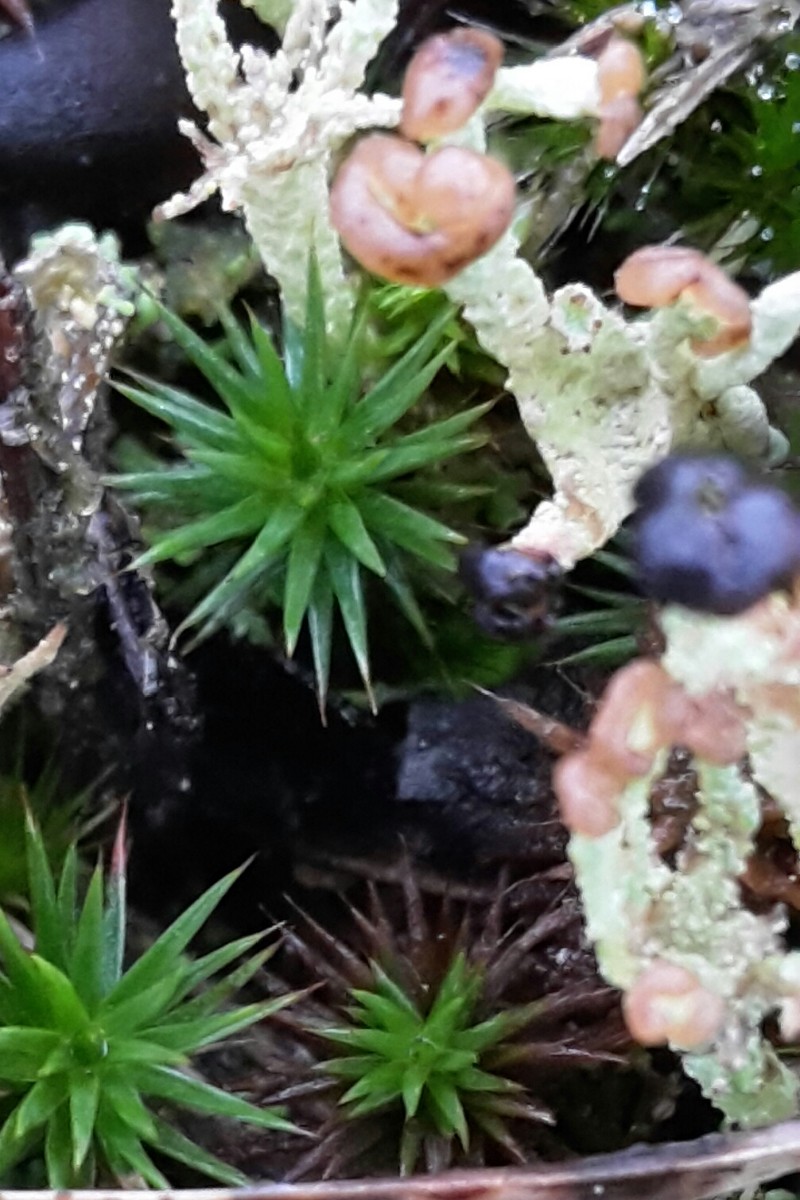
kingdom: Fungi
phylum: Ascomycota
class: Lecanoromycetes
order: Lecanorales
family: Cladoniaceae
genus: Cladonia
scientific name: Cladonia ramulosa
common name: kliddet bægerlav
